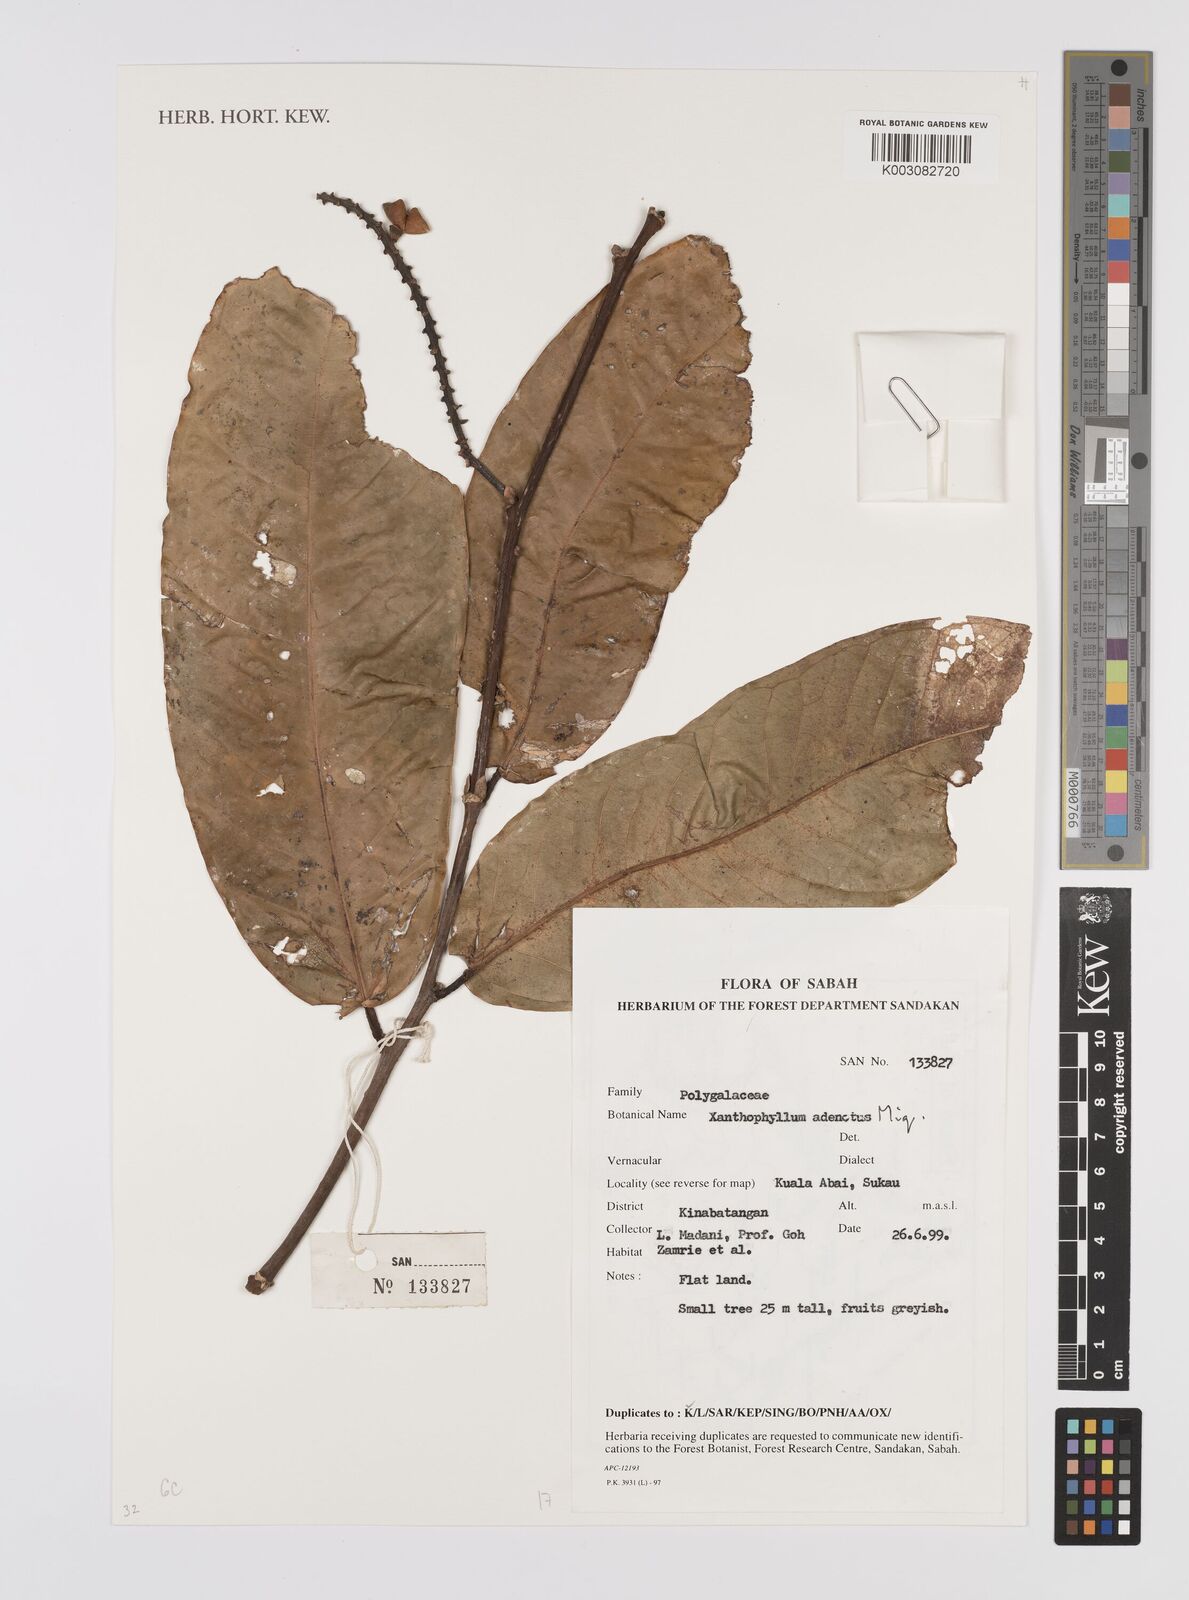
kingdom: Plantae
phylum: Tracheophyta
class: Magnoliopsida
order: Fabales
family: Polygalaceae
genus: Xanthophyllum
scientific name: Xanthophyllum adenotus
